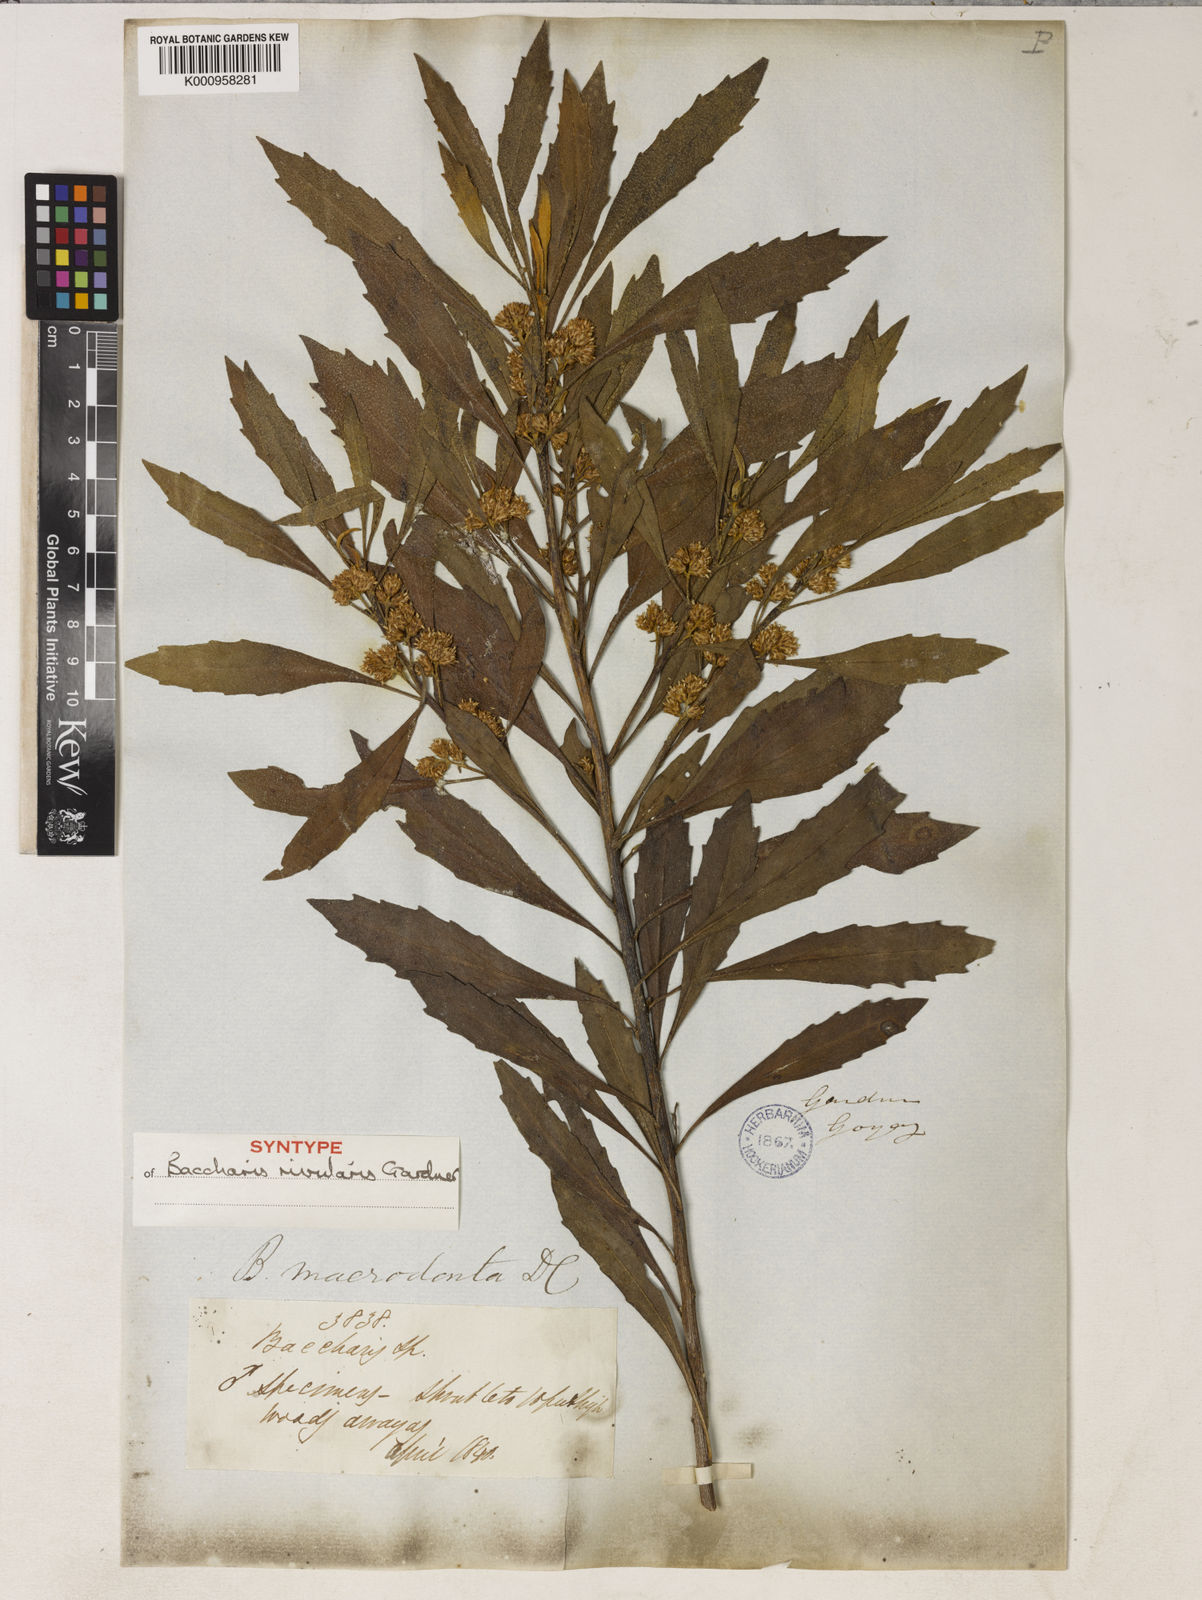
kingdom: Plantae
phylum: Tracheophyta
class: Magnoliopsida
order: Asterales
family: Asteraceae
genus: Baccharis
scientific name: Baccharis rivularis
